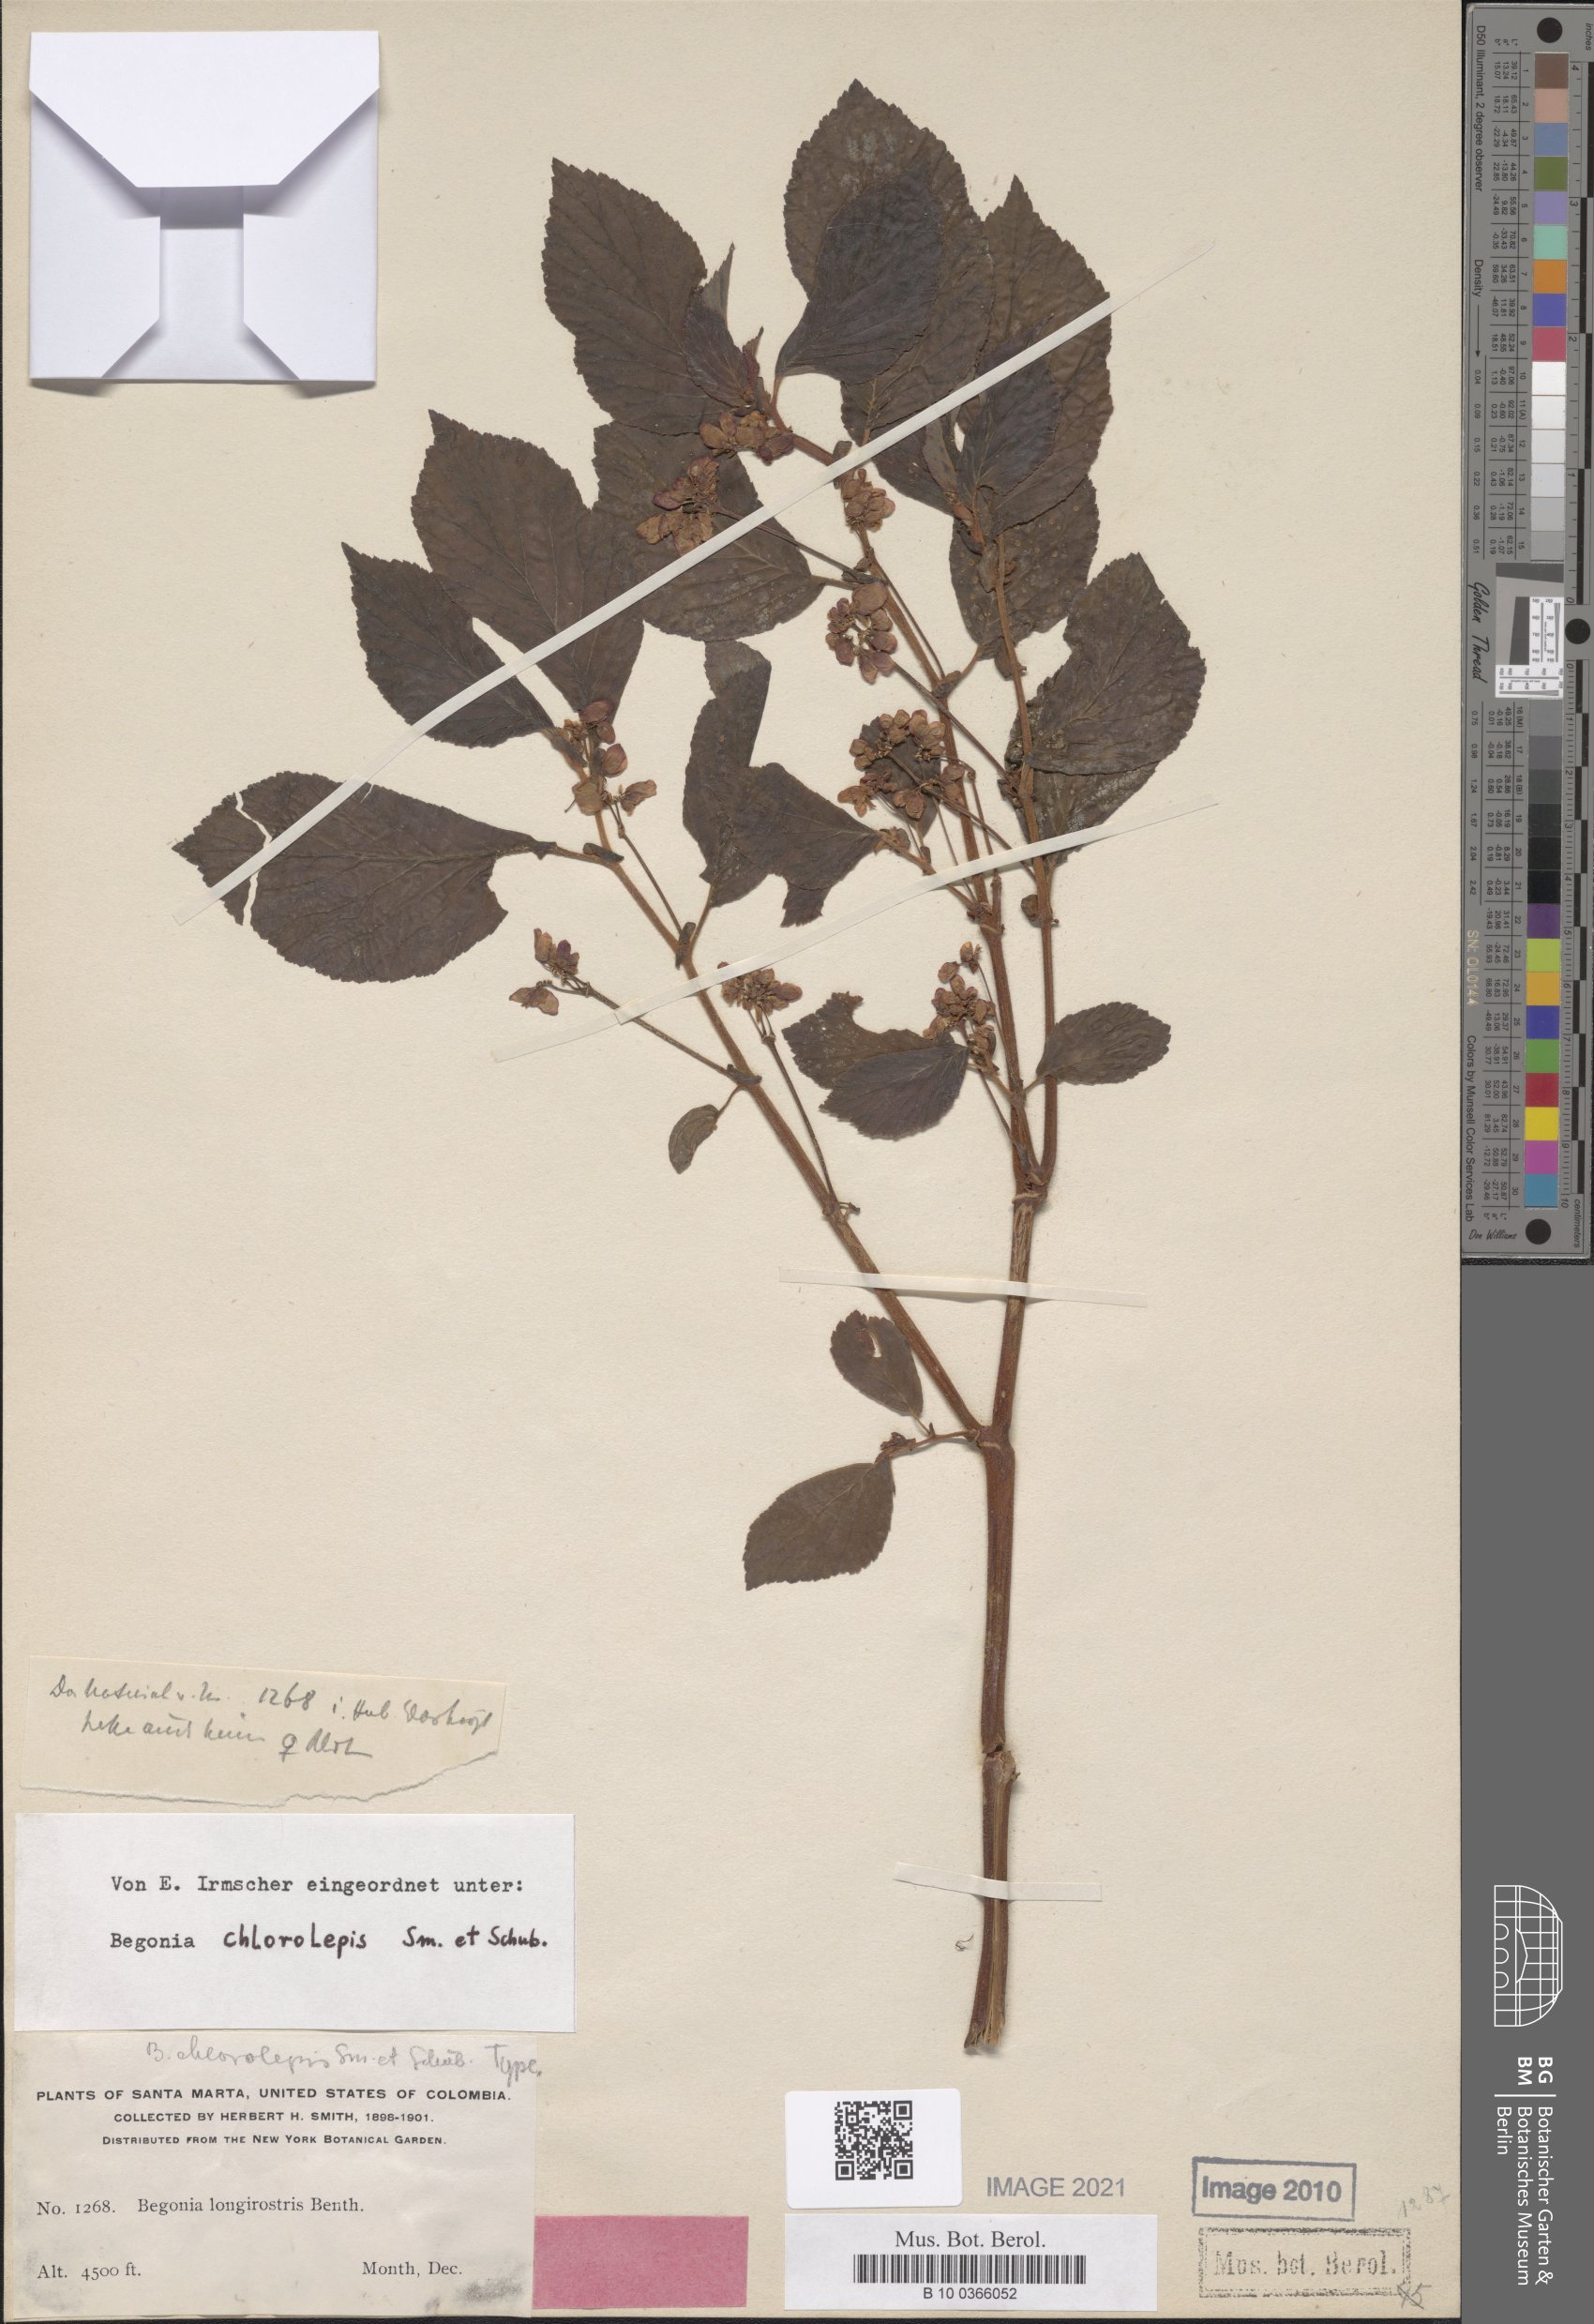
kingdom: Plantae
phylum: Tracheophyta
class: Magnoliopsida
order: Cucurbitales
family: Begoniaceae
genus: Begonia
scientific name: Begonia chlorolepis
